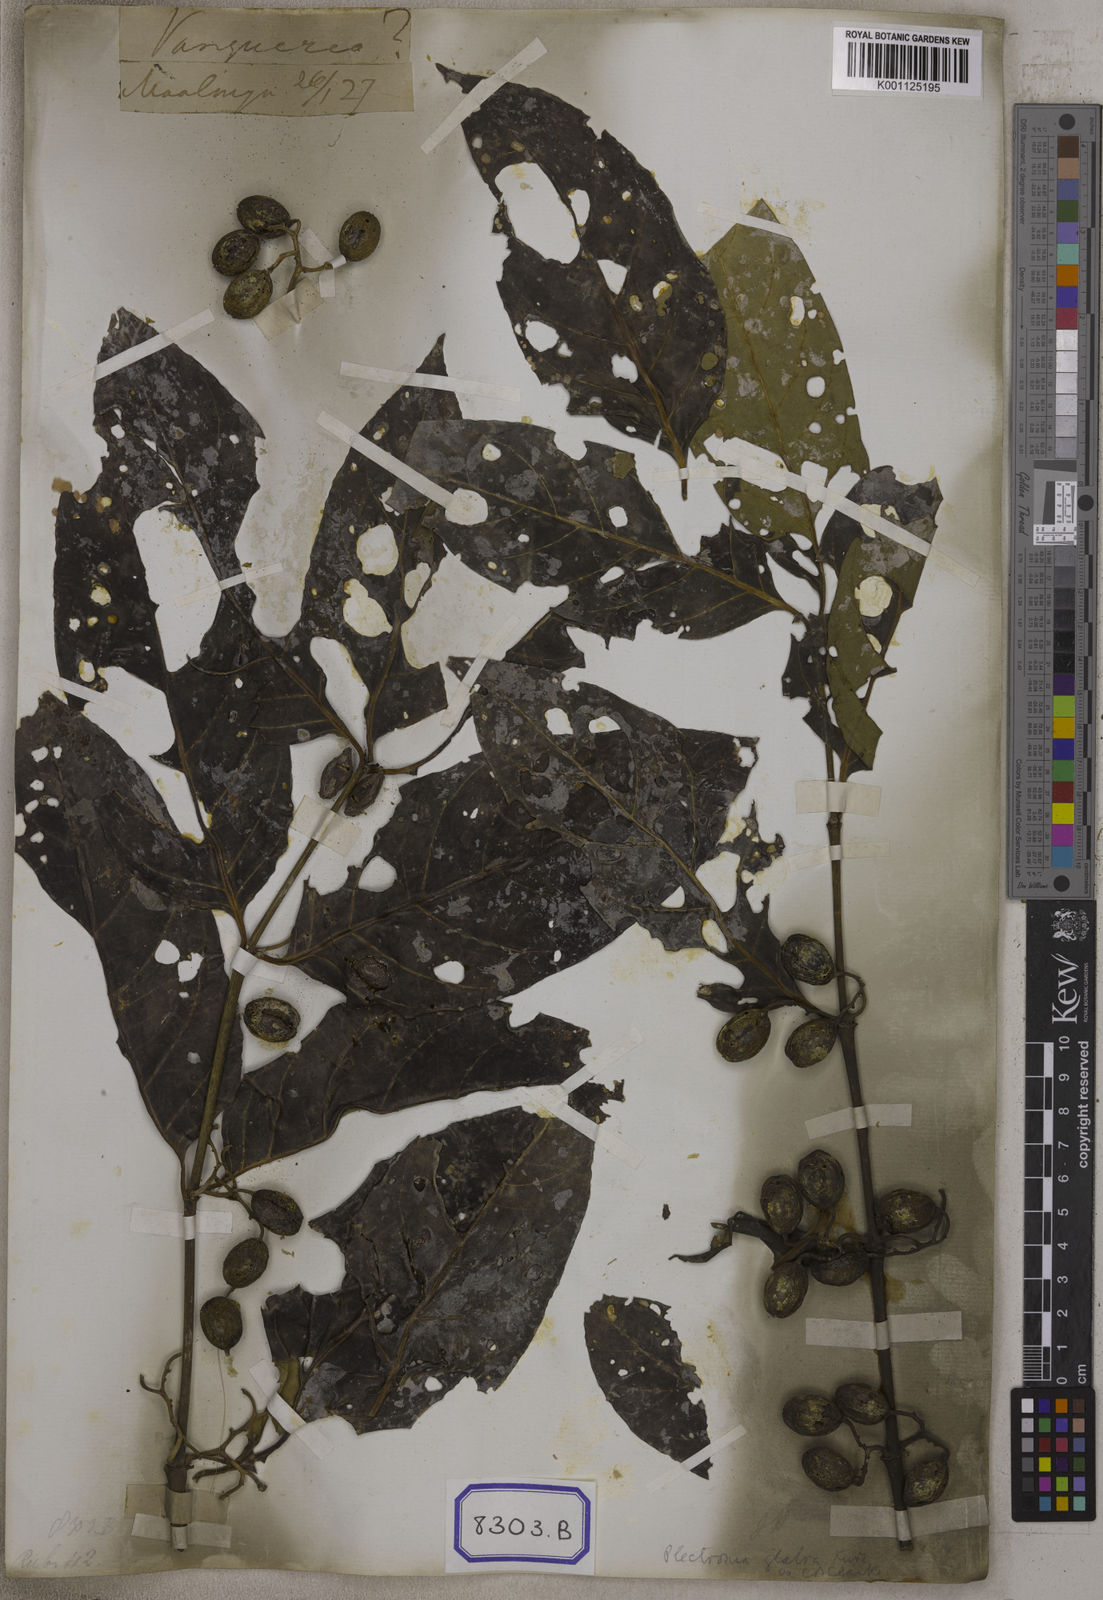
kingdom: Plantae
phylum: Tracheophyta
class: Magnoliopsida
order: Gentianales
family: Rubiaceae
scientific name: Rubiaceae
